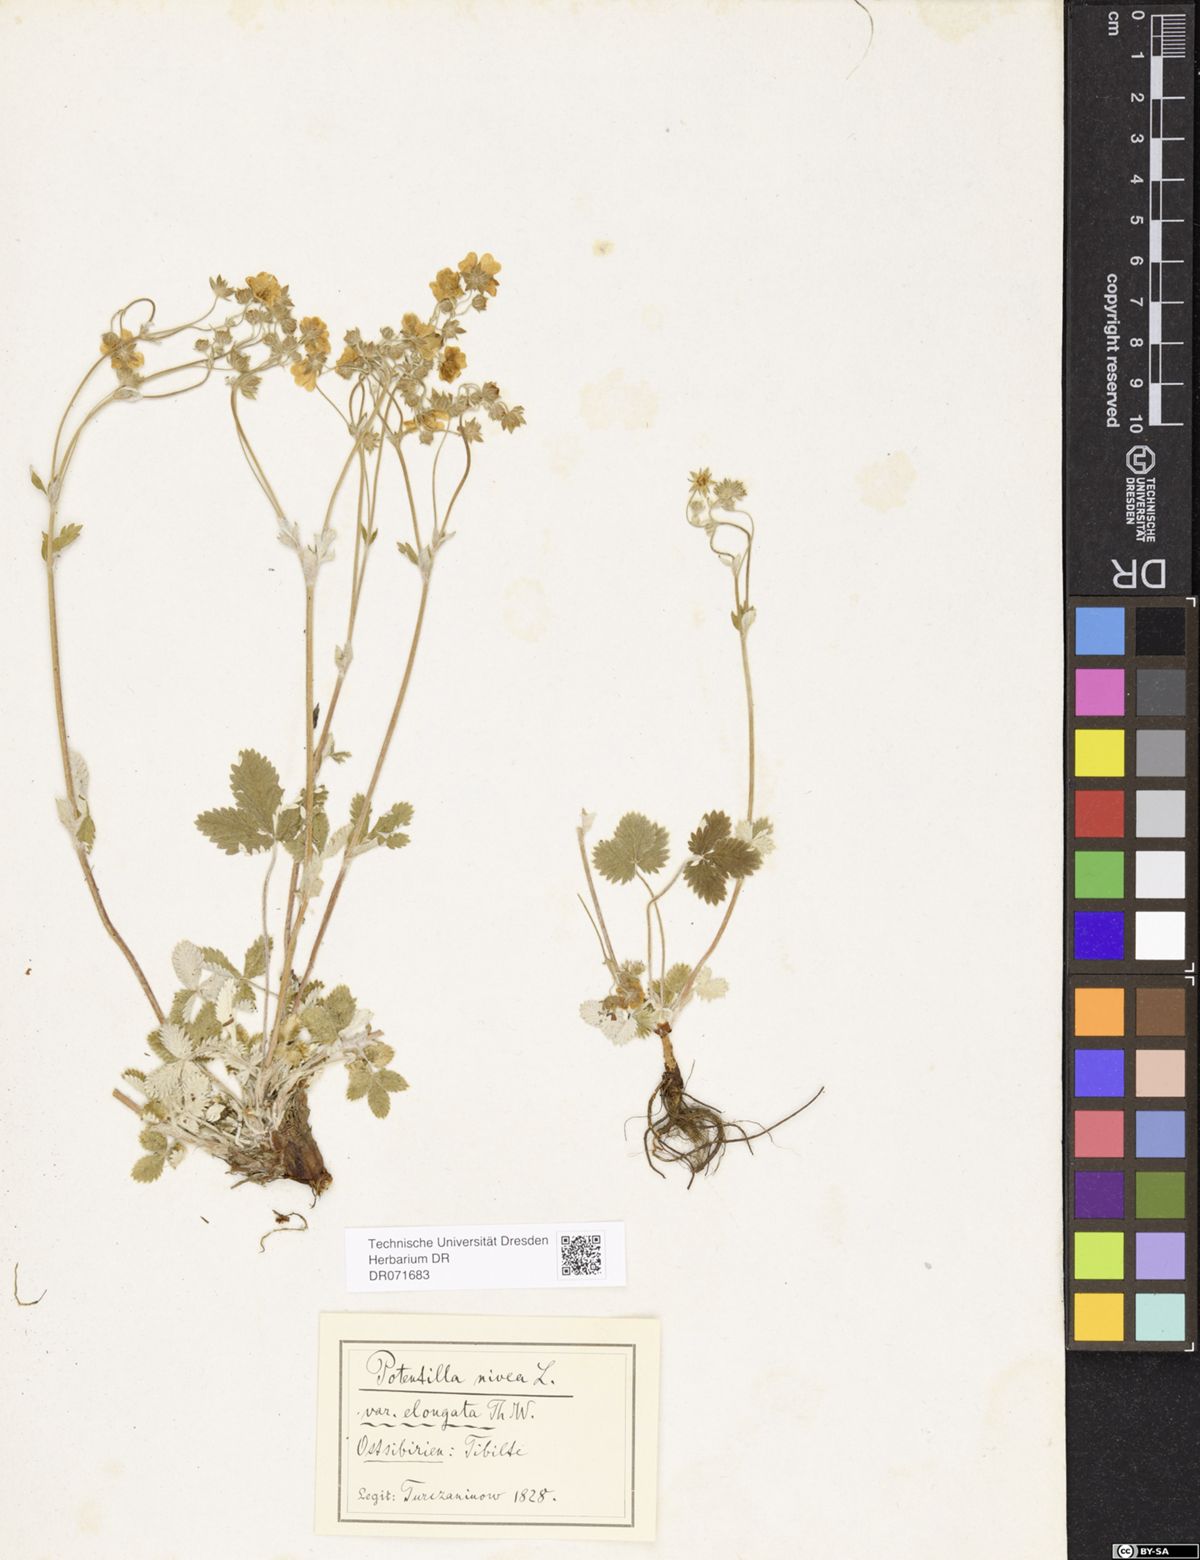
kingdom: Plantae
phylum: Tracheophyta
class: Magnoliopsida
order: Rosales
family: Rosaceae
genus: Potentilla
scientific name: Potentilla crebridens
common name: Congested cinquefoil
